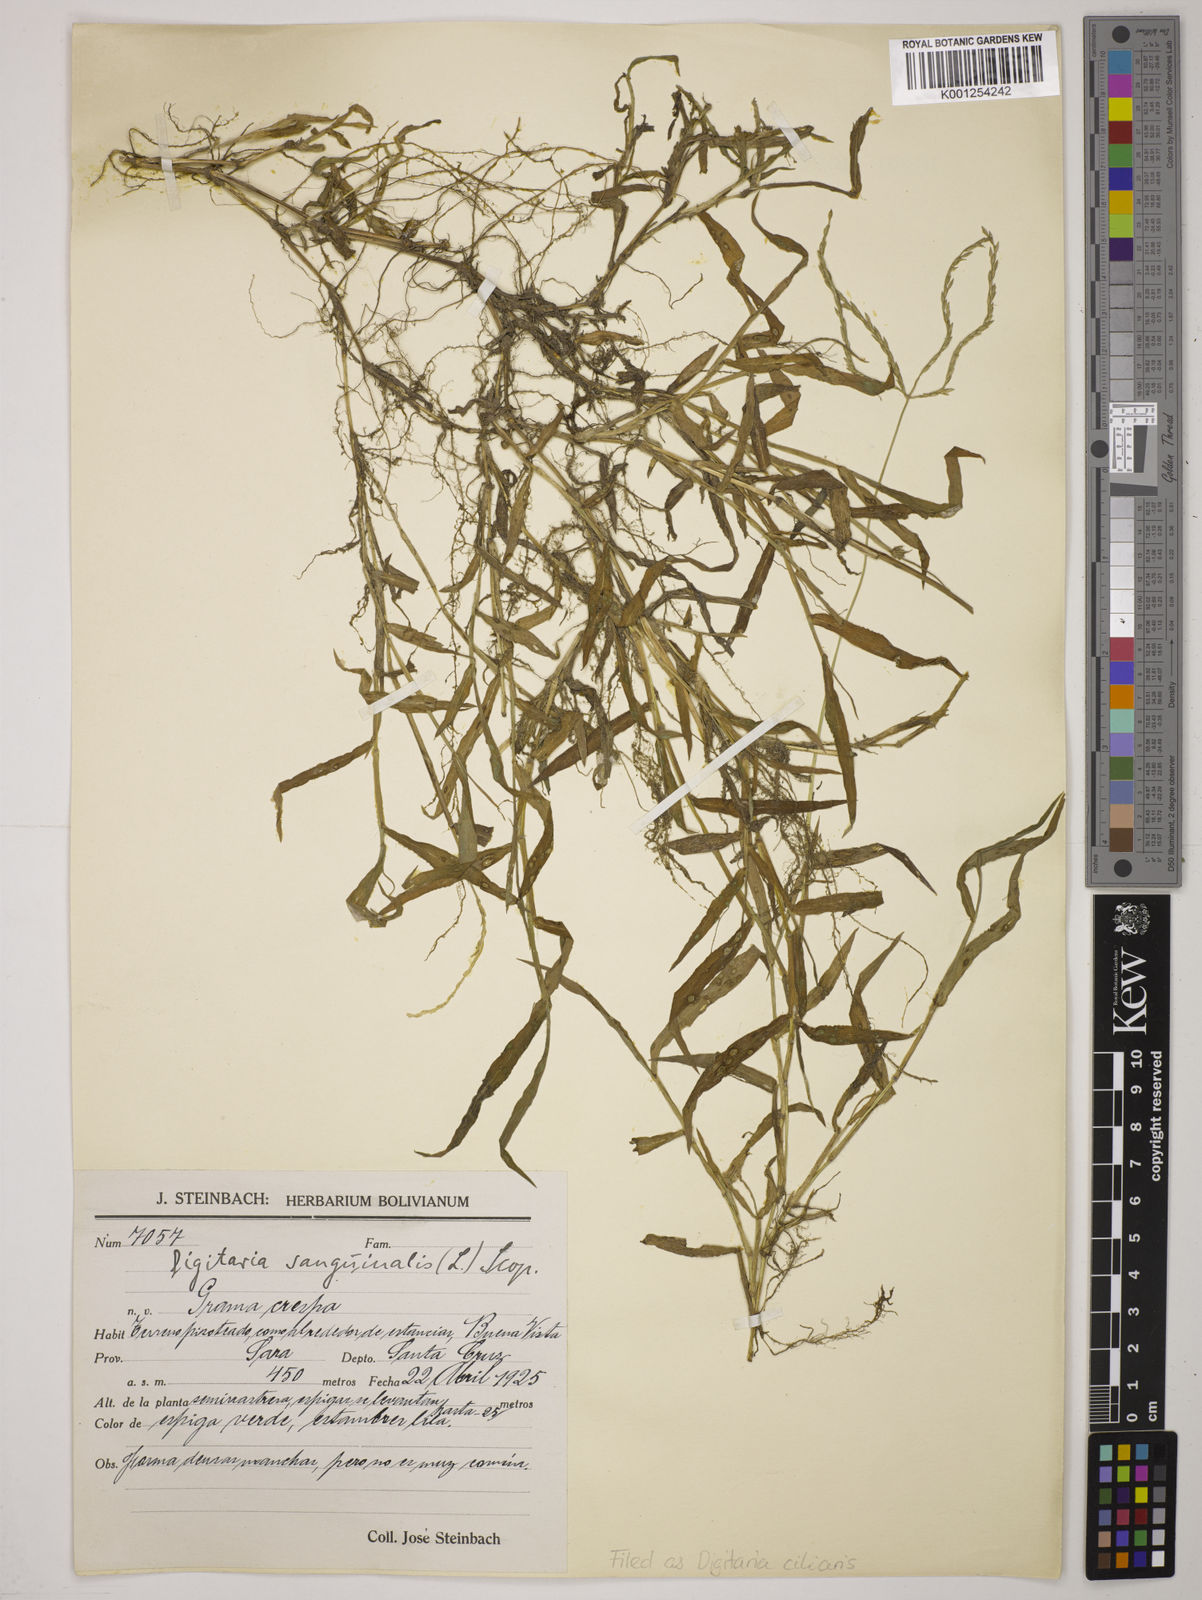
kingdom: Plantae
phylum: Tracheophyta
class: Liliopsida
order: Poales
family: Poaceae
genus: Digitaria
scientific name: Digitaria
